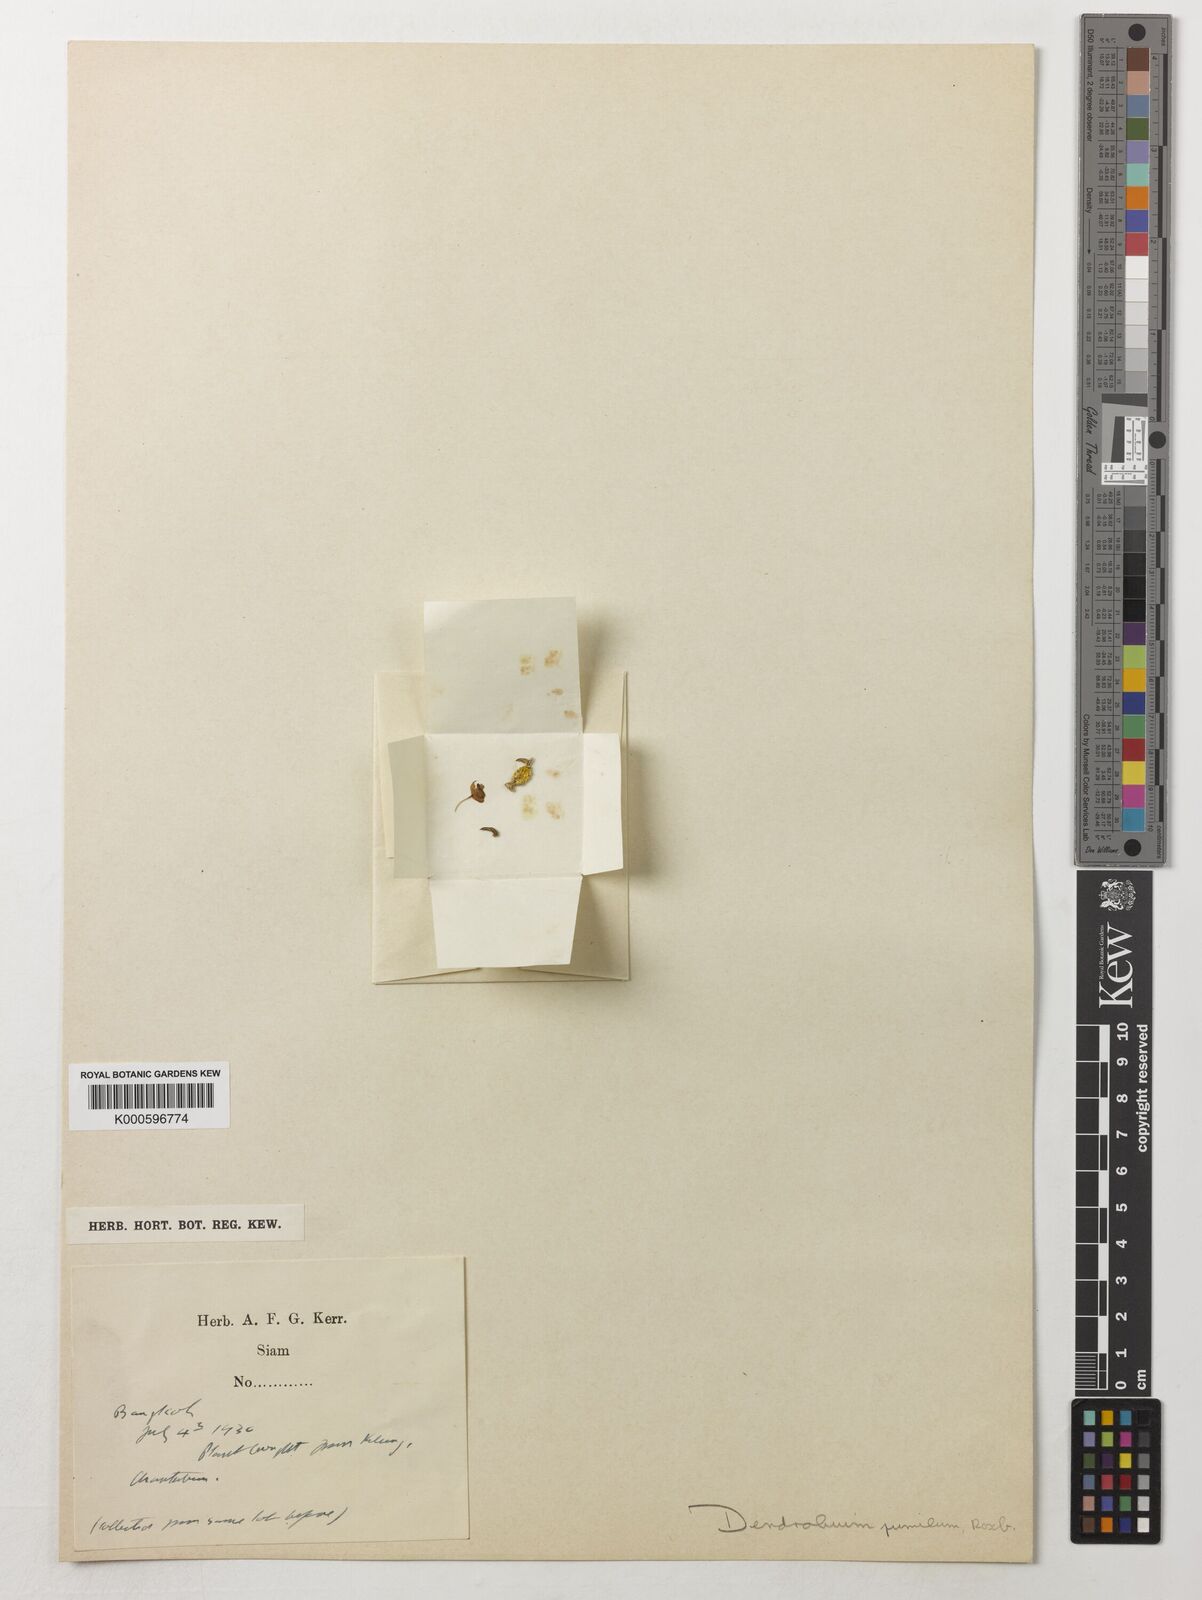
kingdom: Plantae
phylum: Tracheophyta
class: Liliopsida
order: Asparagales
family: Orchidaceae
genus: Dendrobium
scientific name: Dendrobium pachyphyllum
